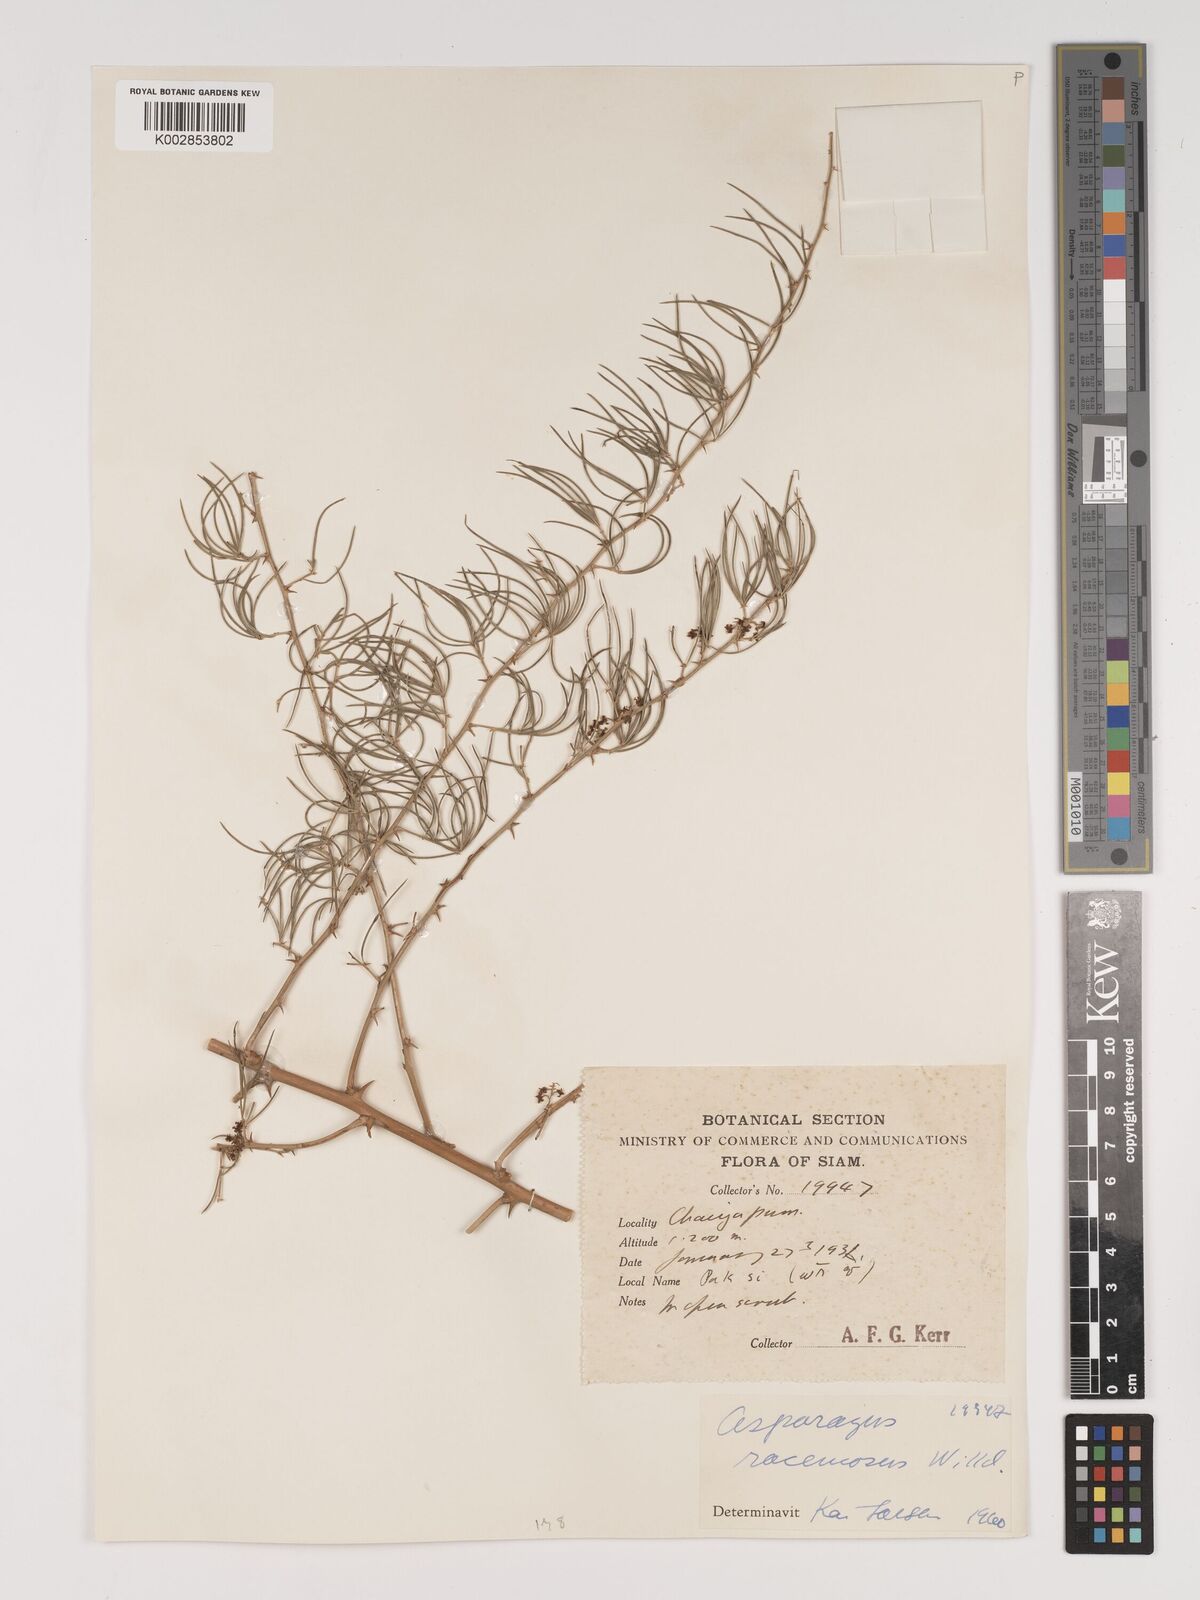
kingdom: Plantae
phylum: Tracheophyta
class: Liliopsida
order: Asparagales
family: Asparagaceae
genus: Asparagus
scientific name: Asparagus racemosus
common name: Asparagus-fern
